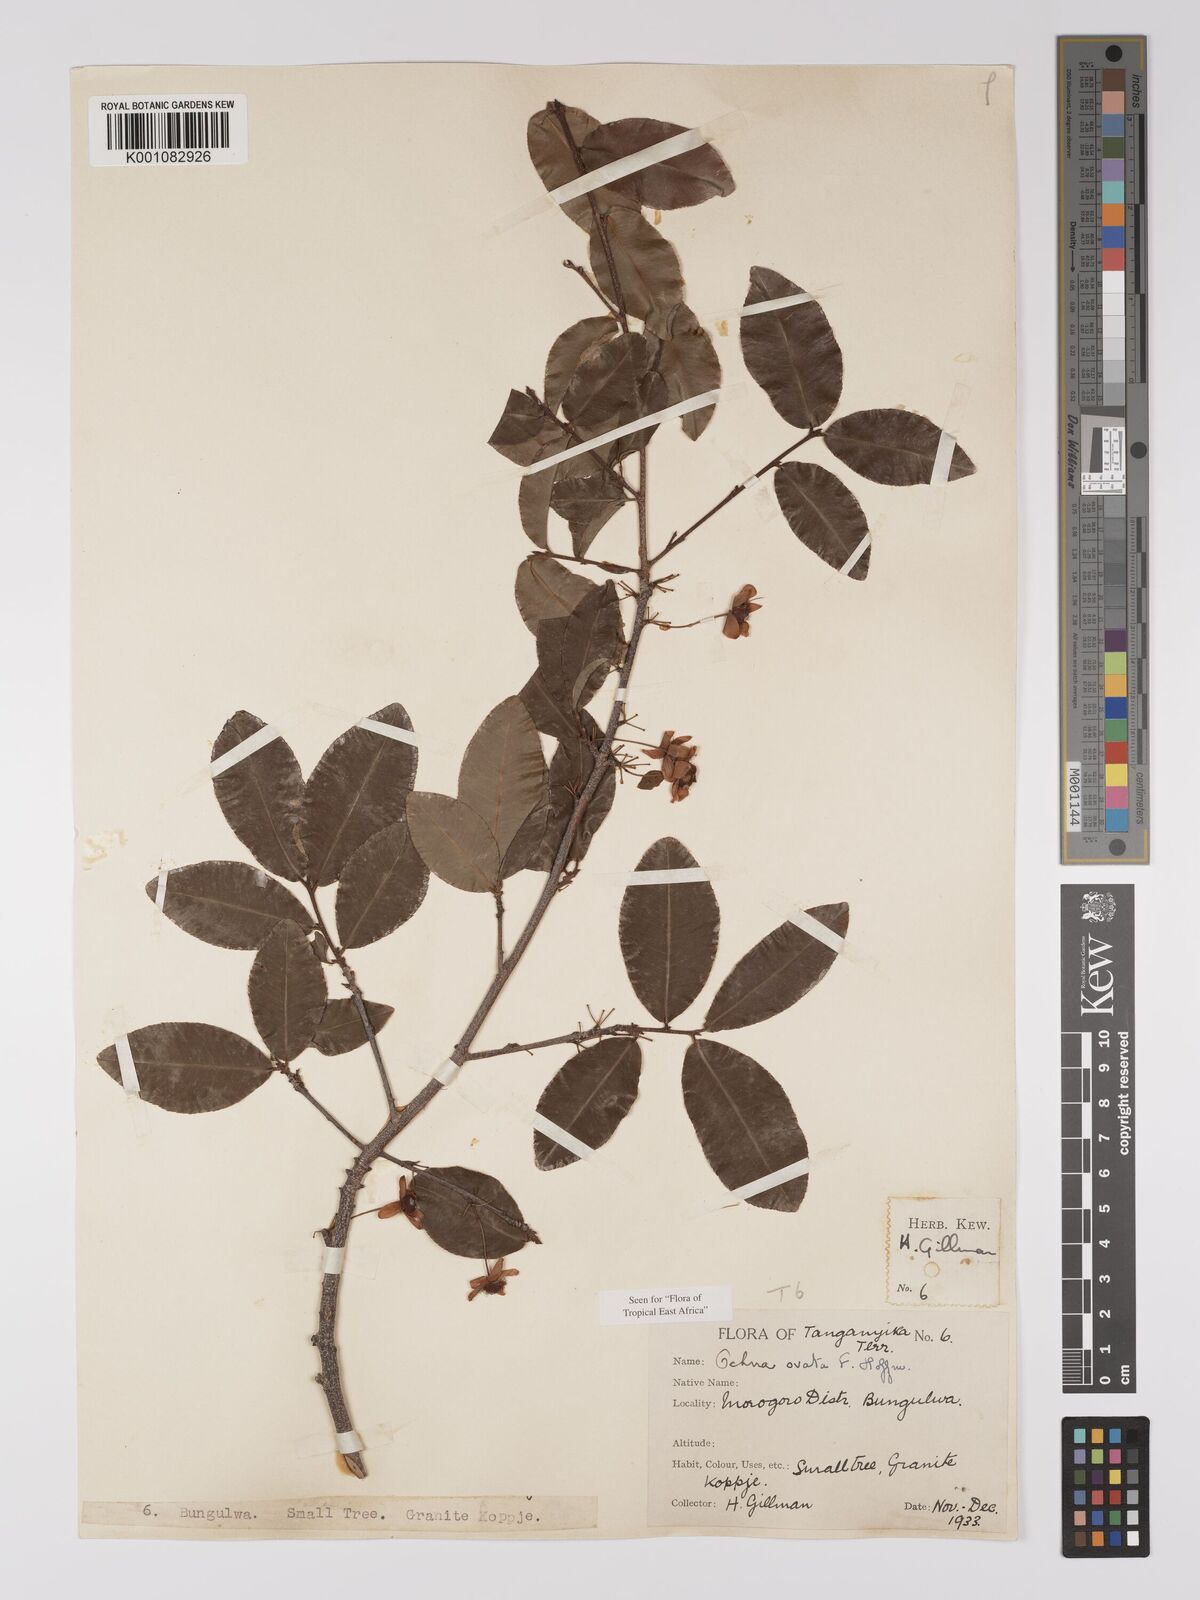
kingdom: Plantae
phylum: Tracheophyta
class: Magnoliopsida
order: Malpighiales
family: Ochnaceae
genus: Ochna
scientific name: Ochna ovata
